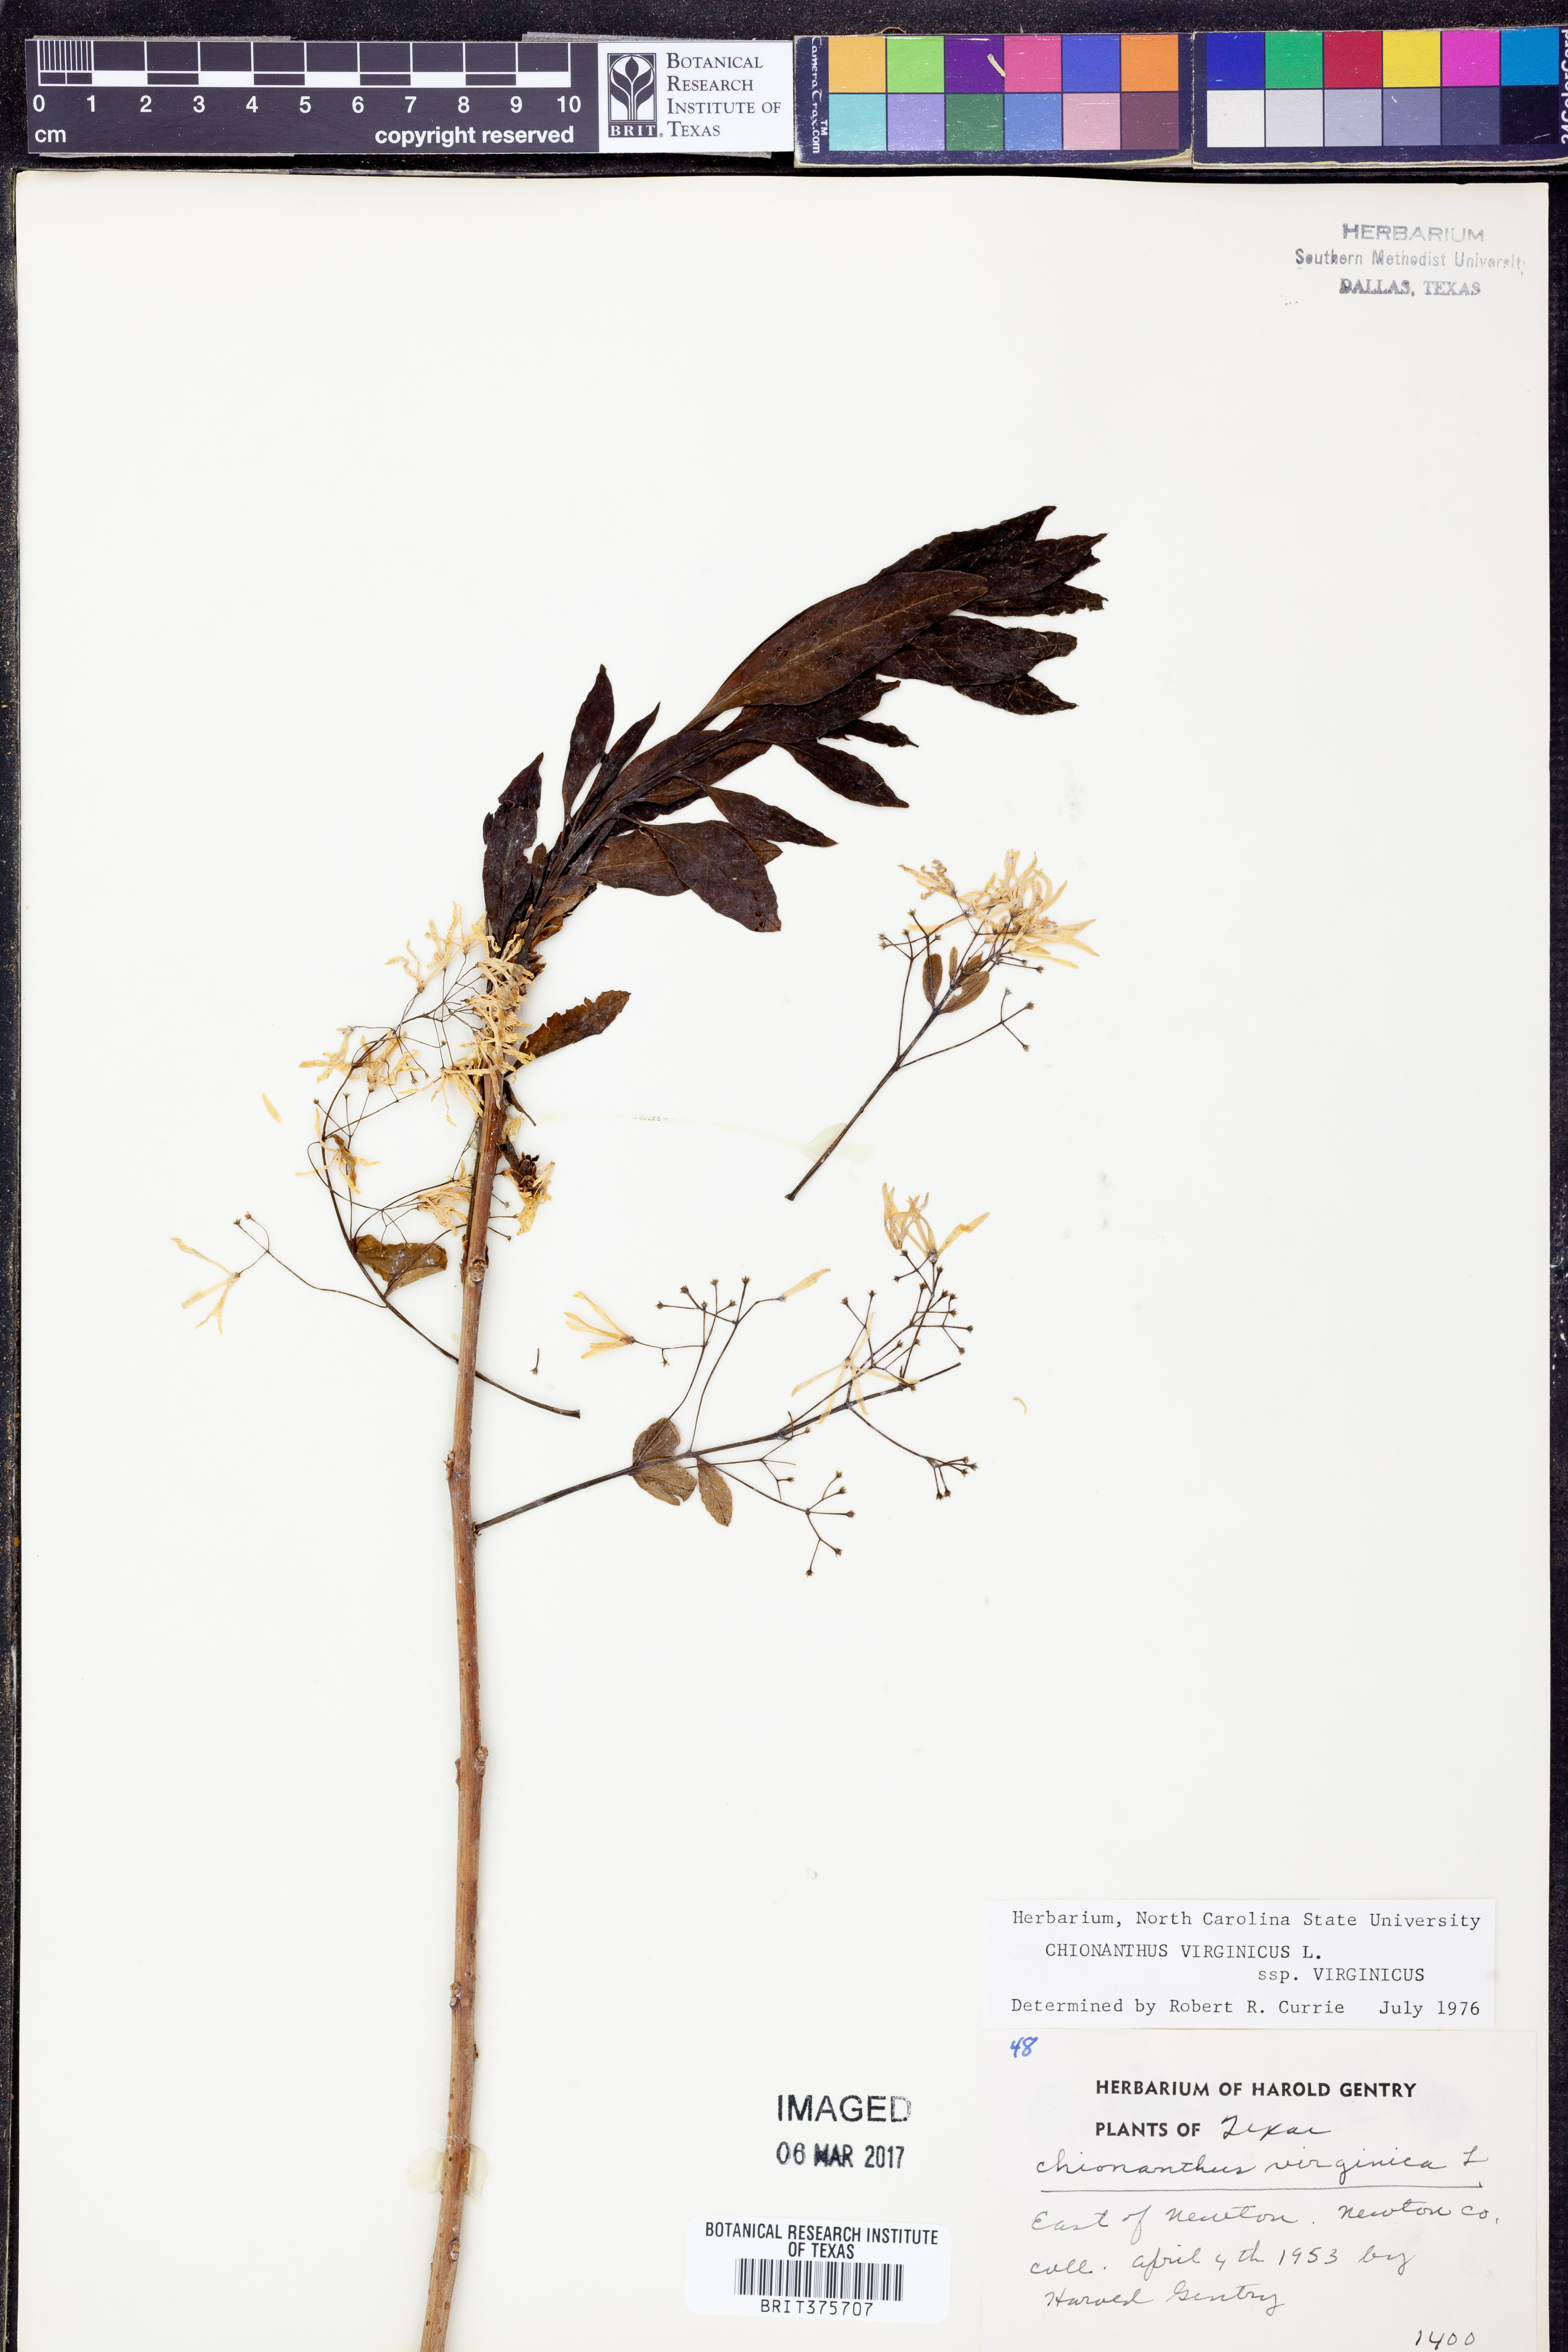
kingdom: Plantae
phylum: Tracheophyta
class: Magnoliopsida
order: Lamiales
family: Oleaceae
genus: Chionanthus
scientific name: Chionanthus virginicus
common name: American fringetree
